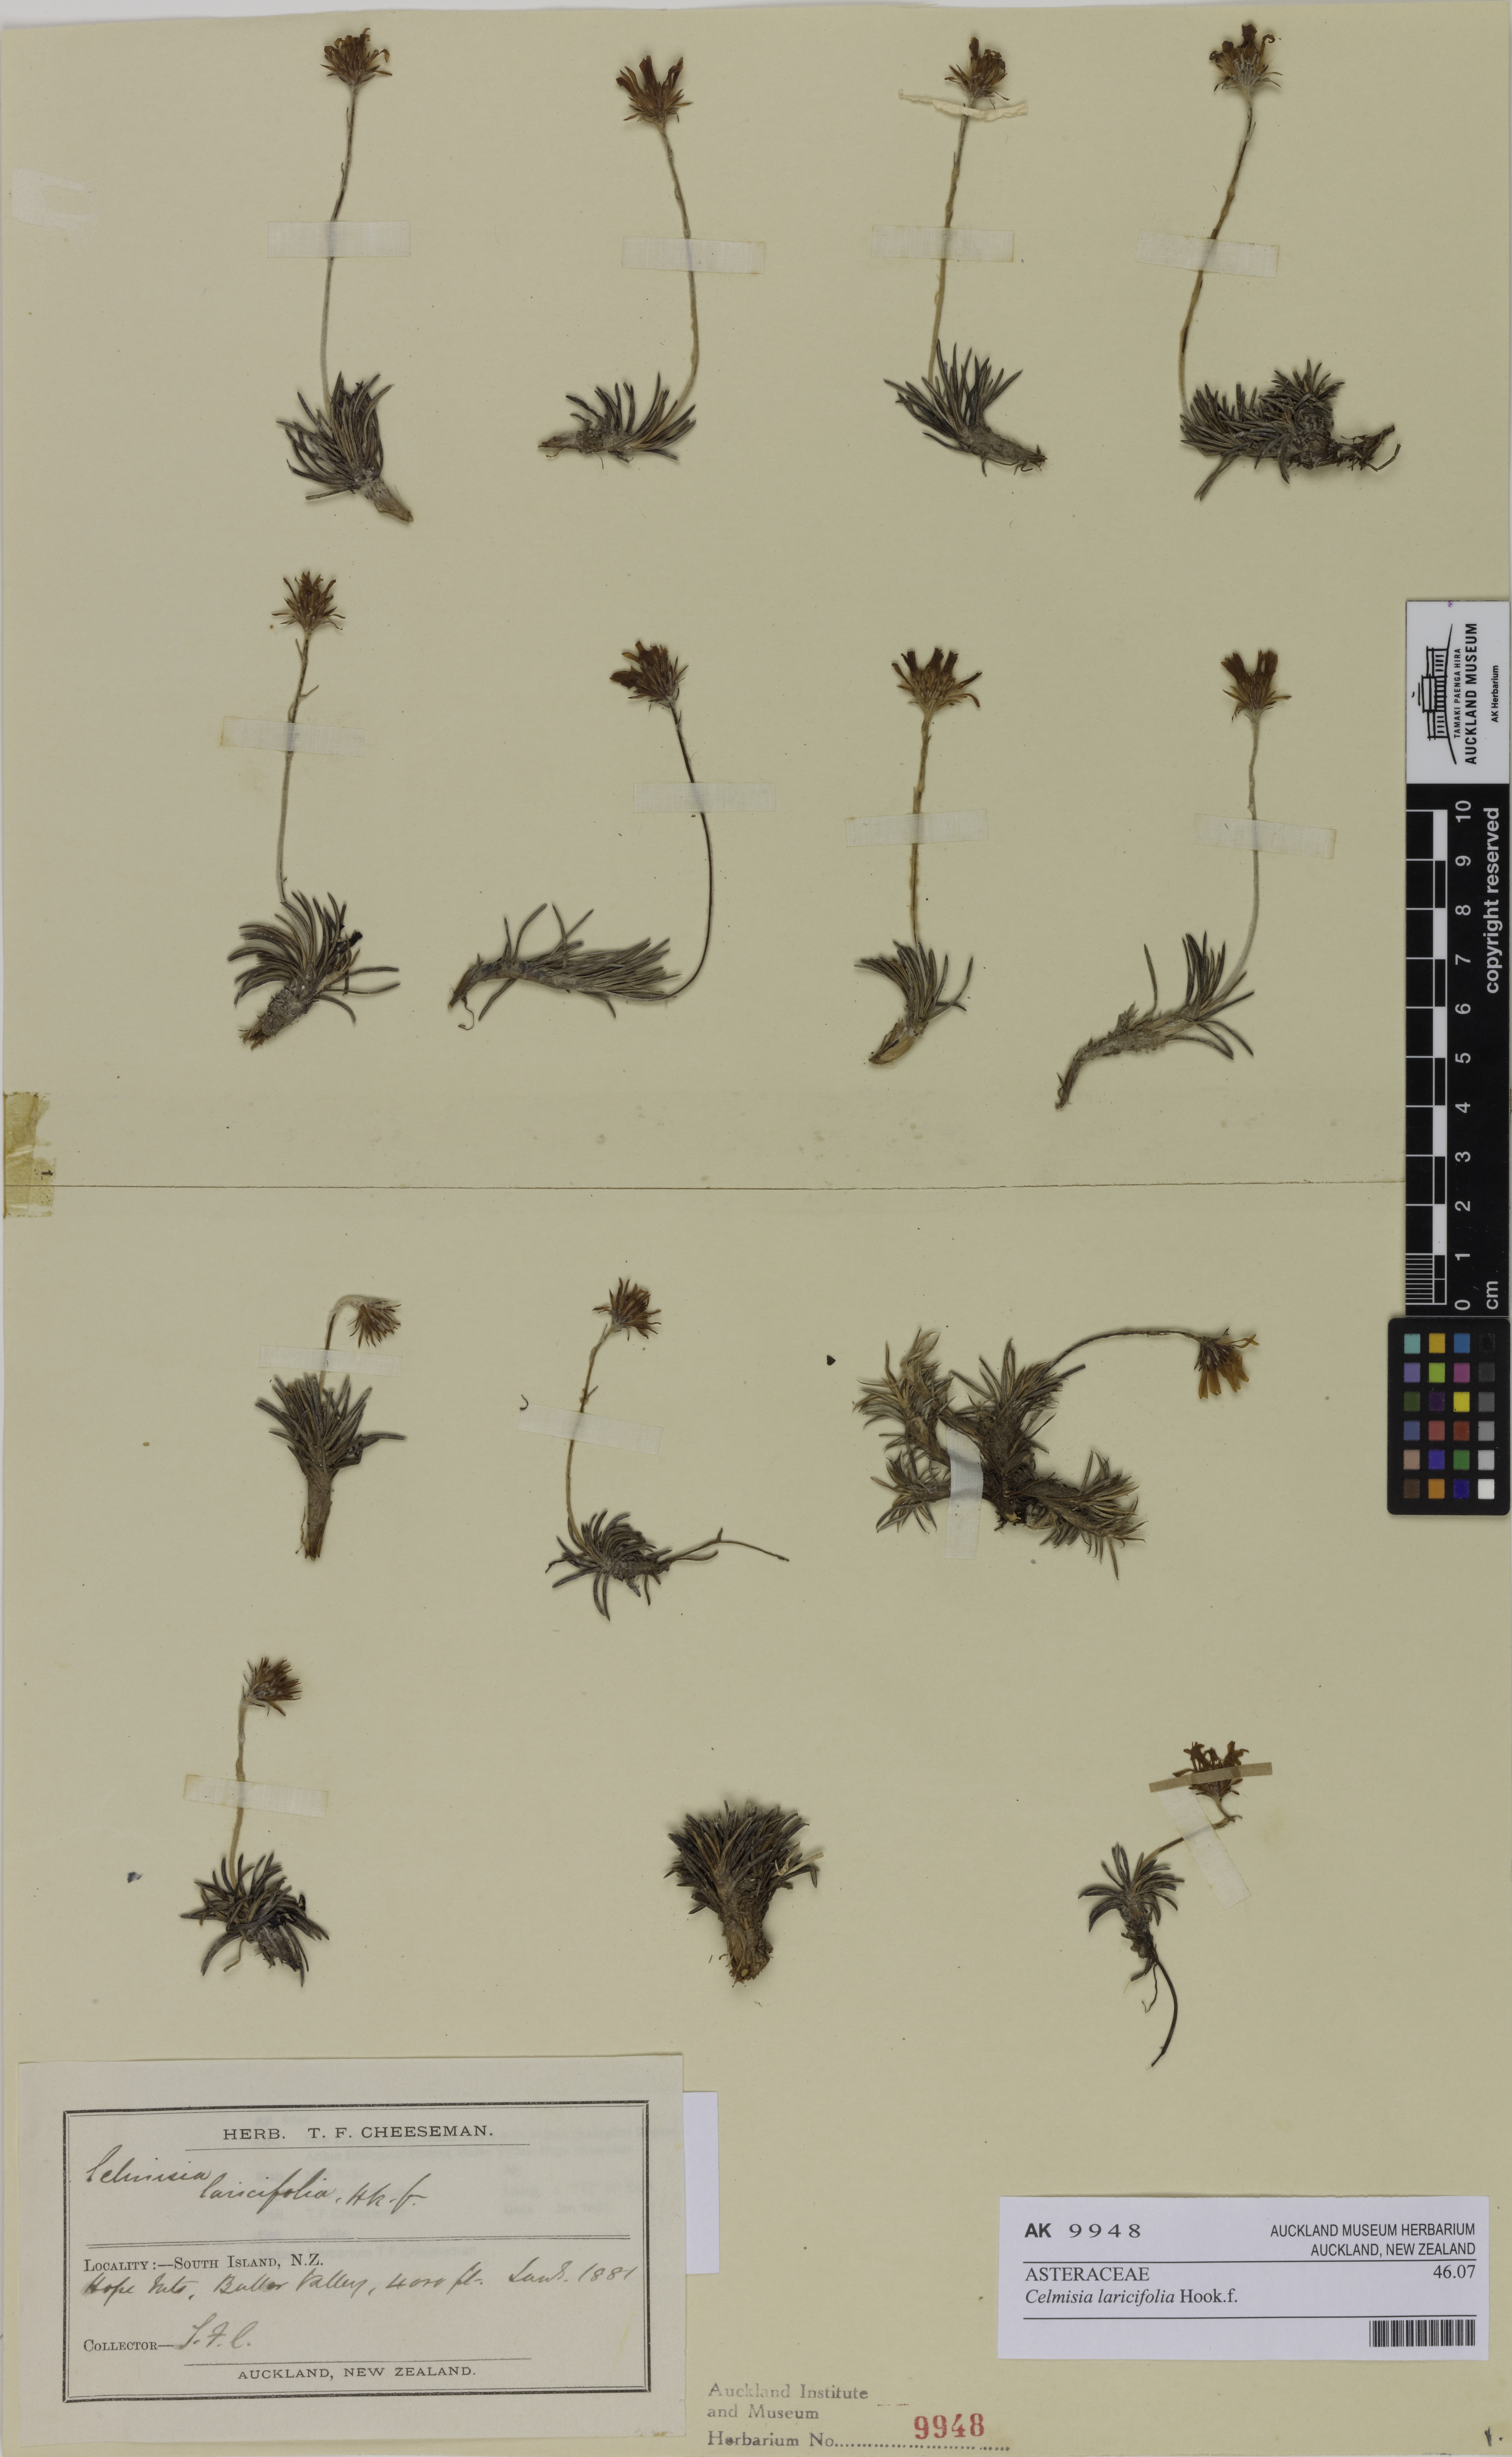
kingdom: Plantae
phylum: Tracheophyta
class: Magnoliopsida
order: Asterales
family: Asteraceae
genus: Celmisia
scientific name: Celmisia laricifolia
